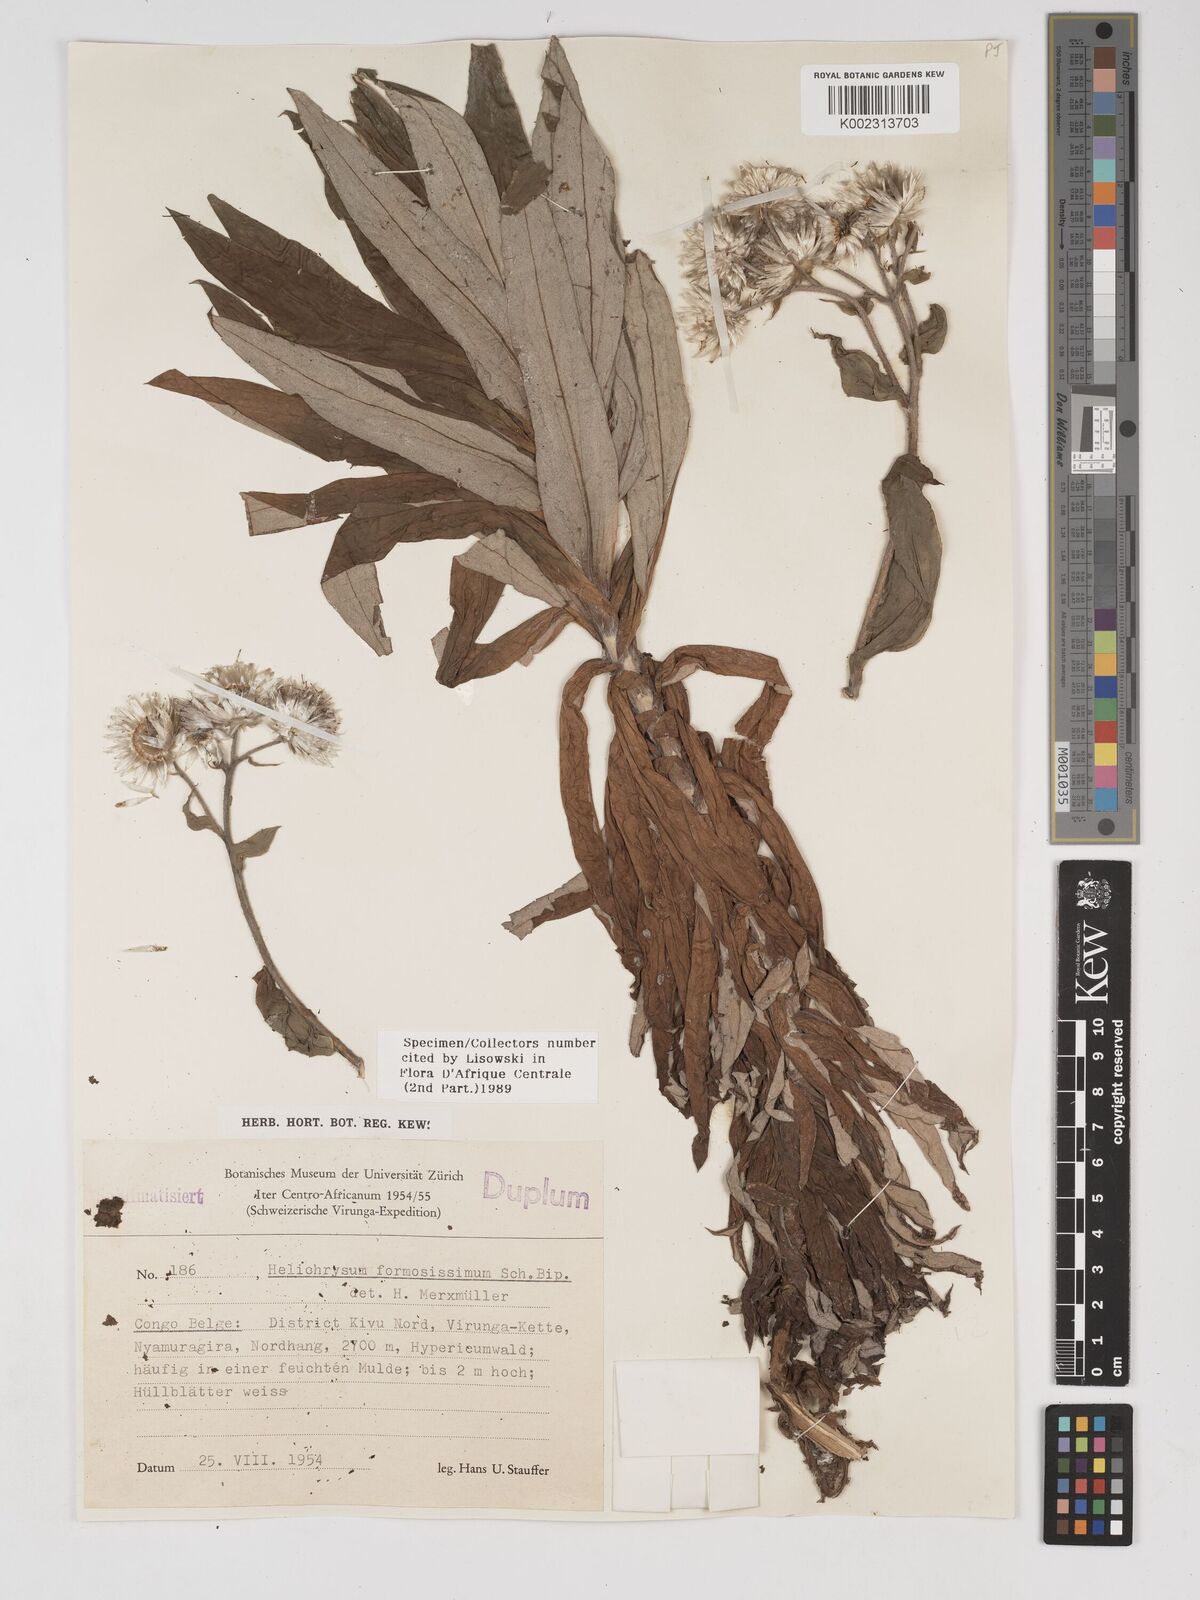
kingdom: Plantae
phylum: Tracheophyta
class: Magnoliopsida
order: Asterales
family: Asteraceae
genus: Helichrysum
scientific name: Helichrysum formosissimum
